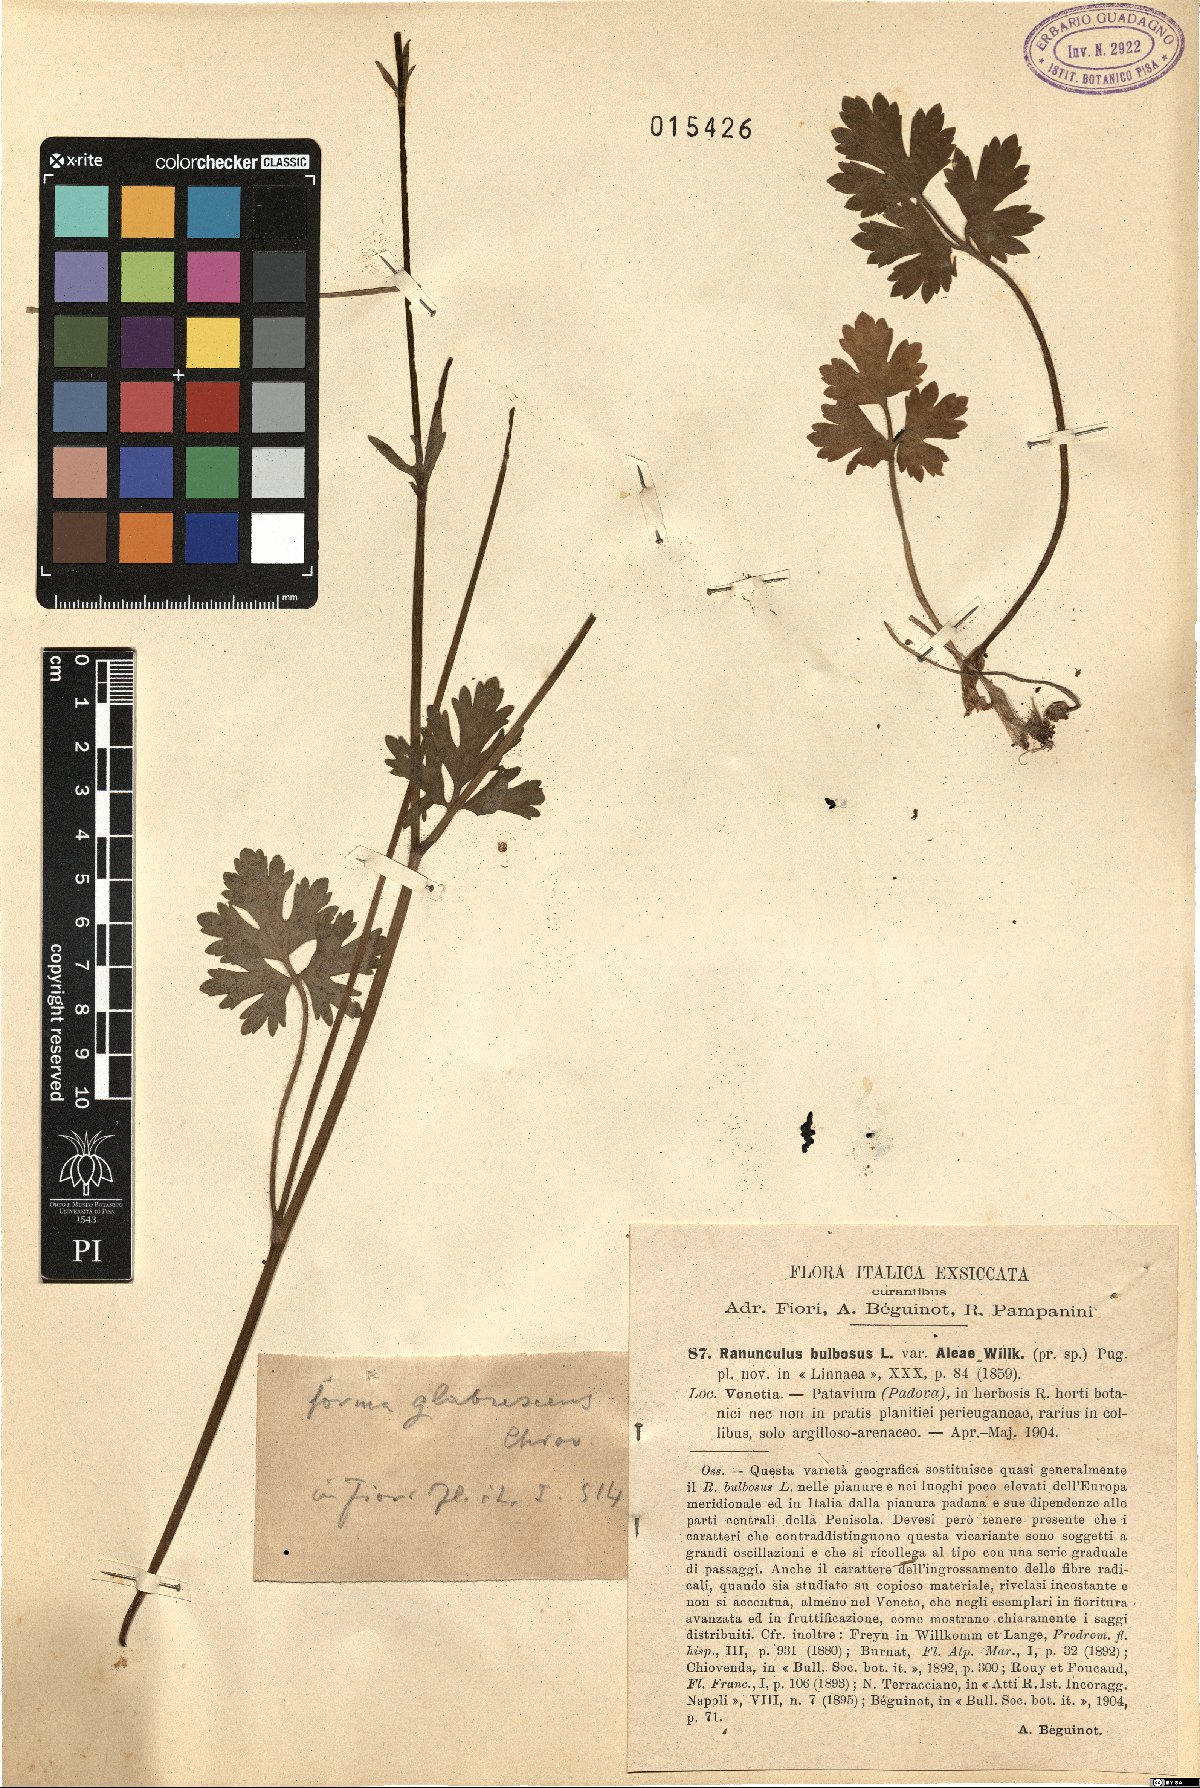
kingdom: Plantae
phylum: Tracheophyta
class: Magnoliopsida
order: Ranunculales
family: Ranunculaceae
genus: Ranunculus
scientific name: Ranunculus neapolitanus
